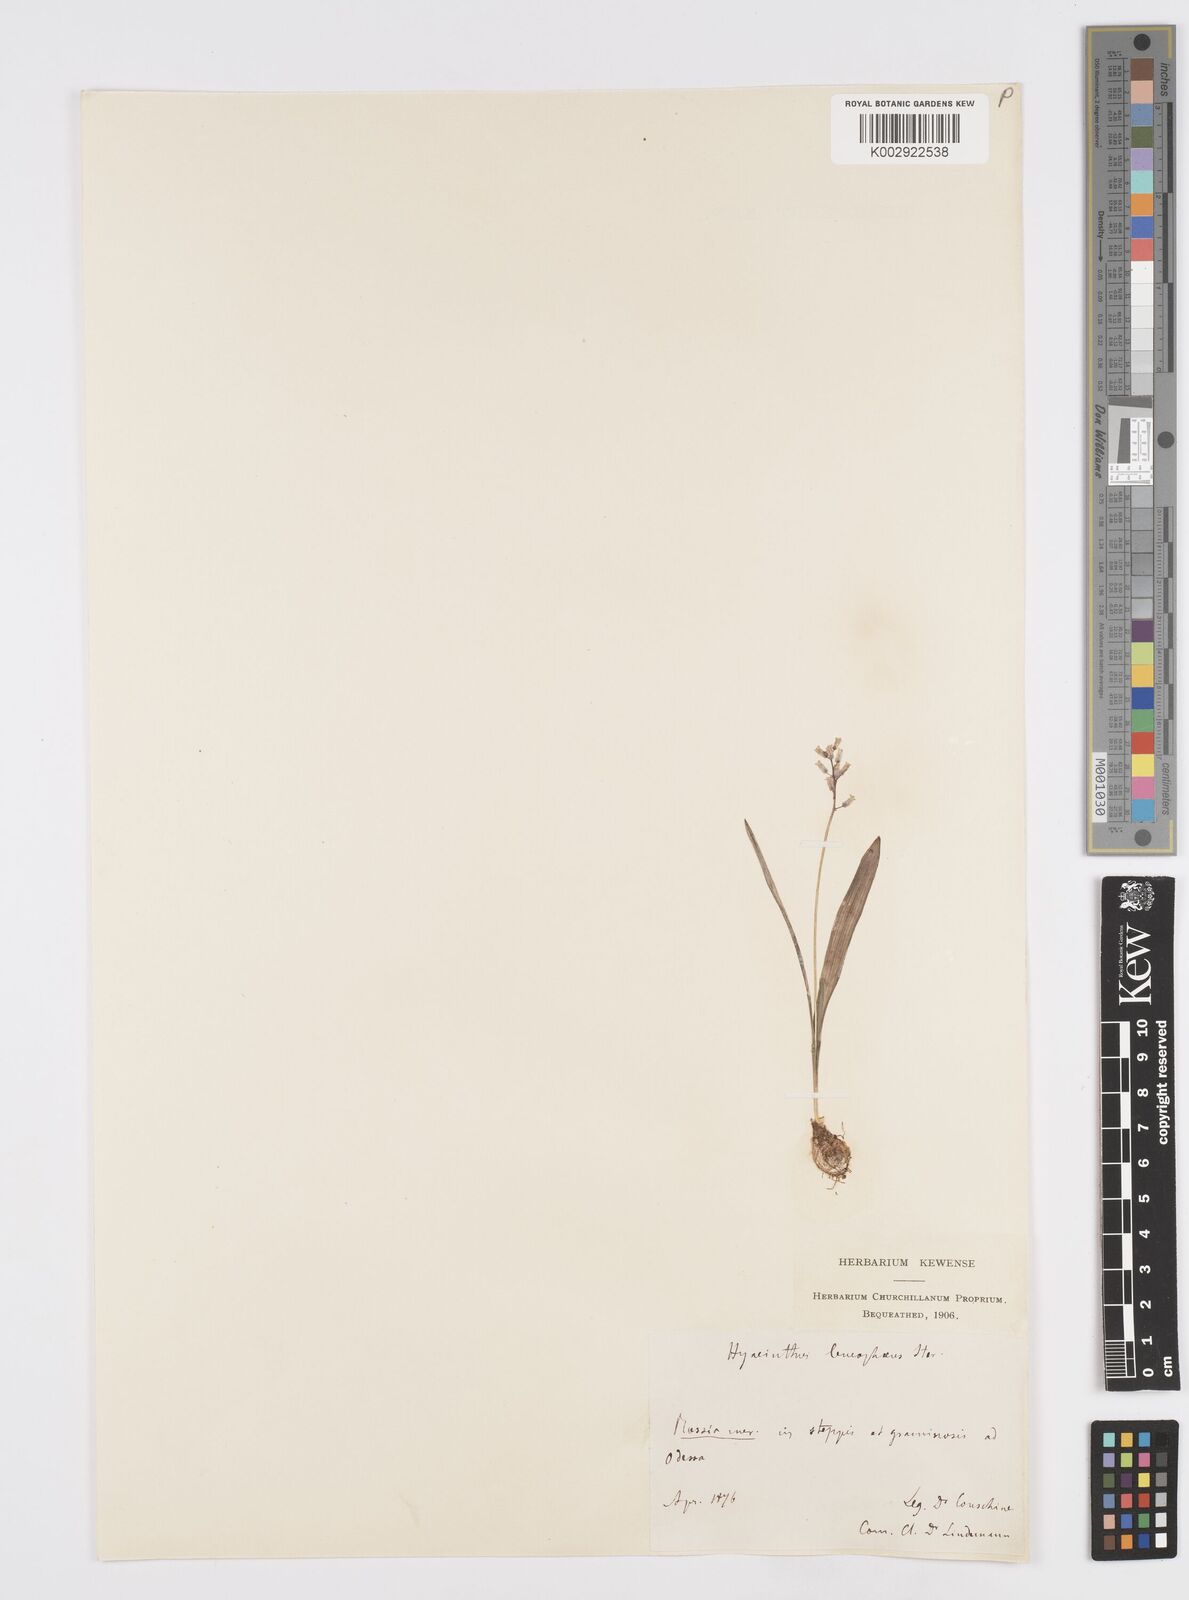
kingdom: Plantae
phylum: Tracheophyta
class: Liliopsida
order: Asparagales
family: Asparagaceae
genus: Hyacinthella
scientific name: Hyacinthella leucophaea
